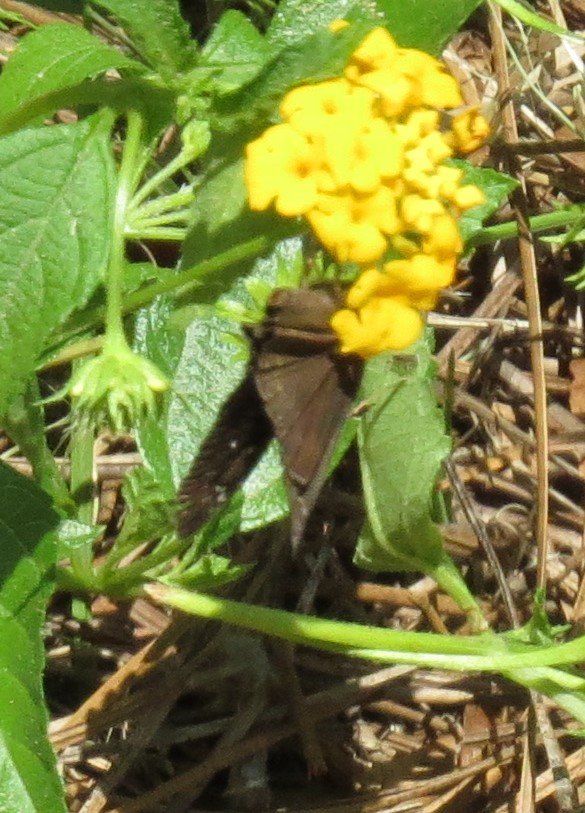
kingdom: Animalia
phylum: Arthropoda
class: Insecta
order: Lepidoptera
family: Hesperiidae
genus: Gesta
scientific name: Gesta
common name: Horace's Duskywing
